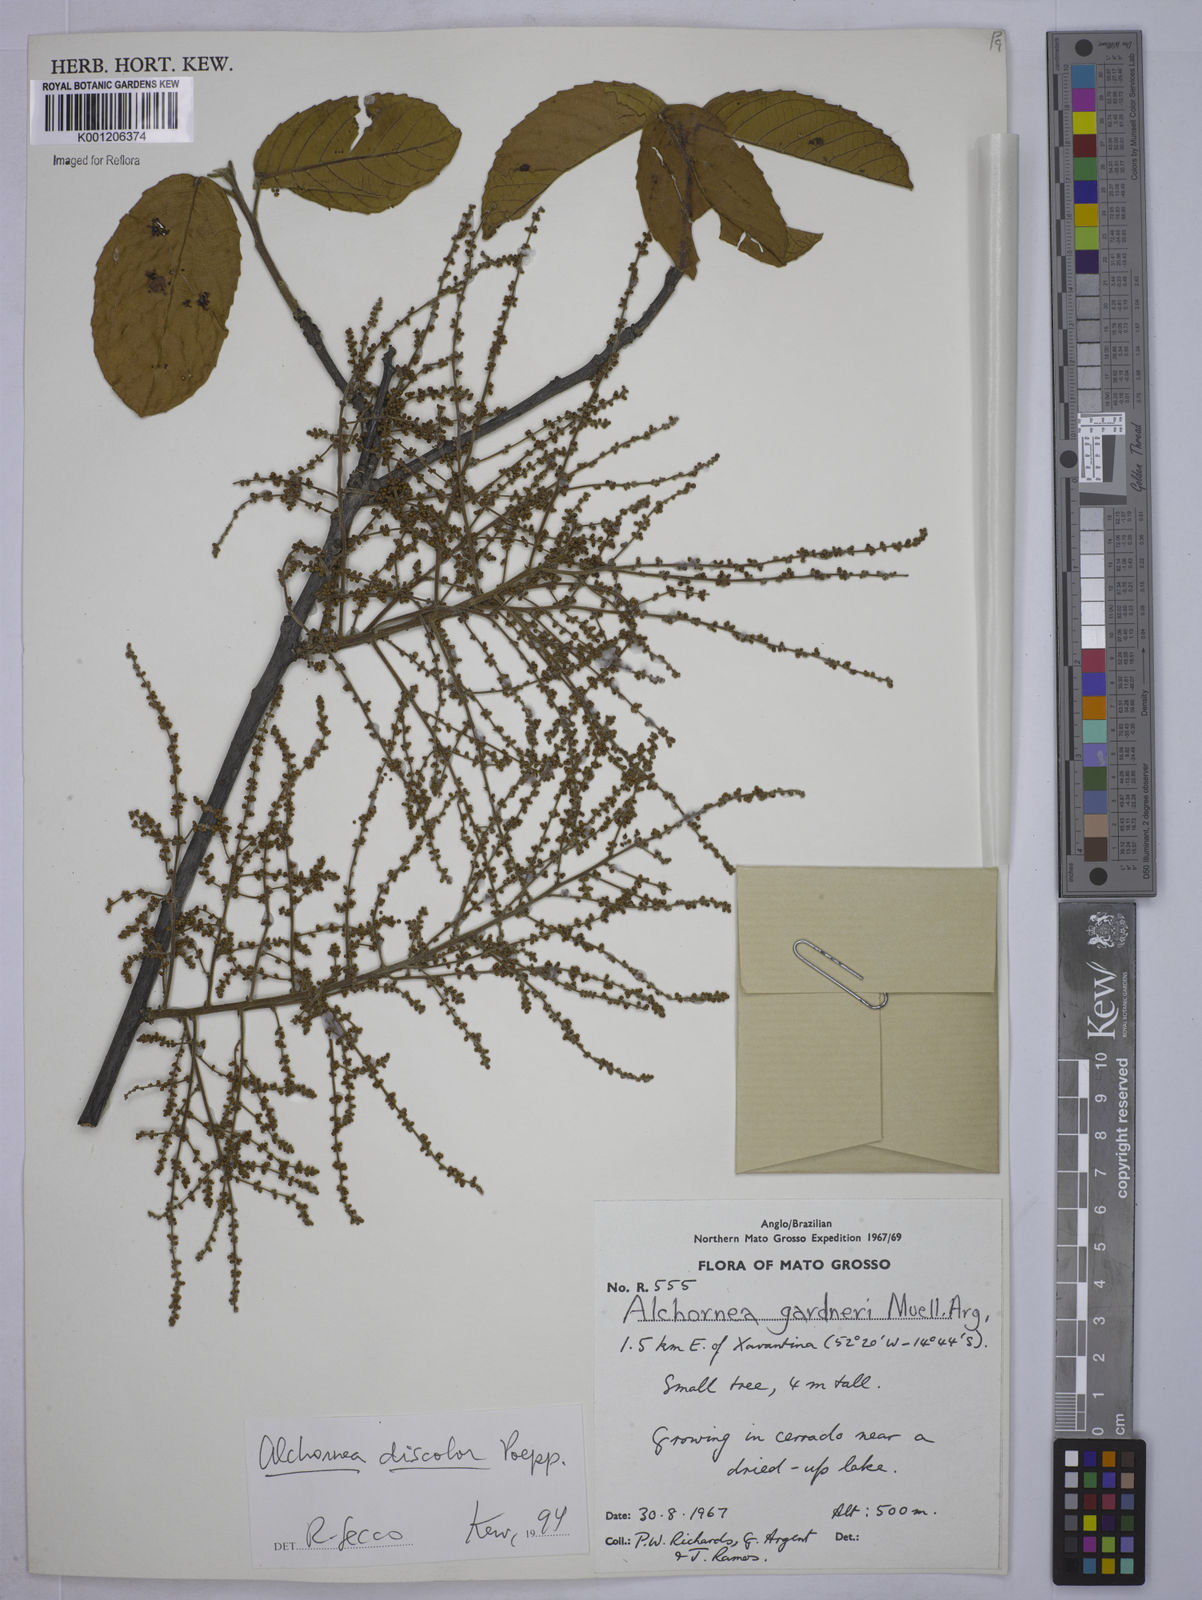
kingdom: Plantae
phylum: Tracheophyta
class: Magnoliopsida
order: Malpighiales
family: Euphorbiaceae
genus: Alchornea
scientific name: Alchornea
